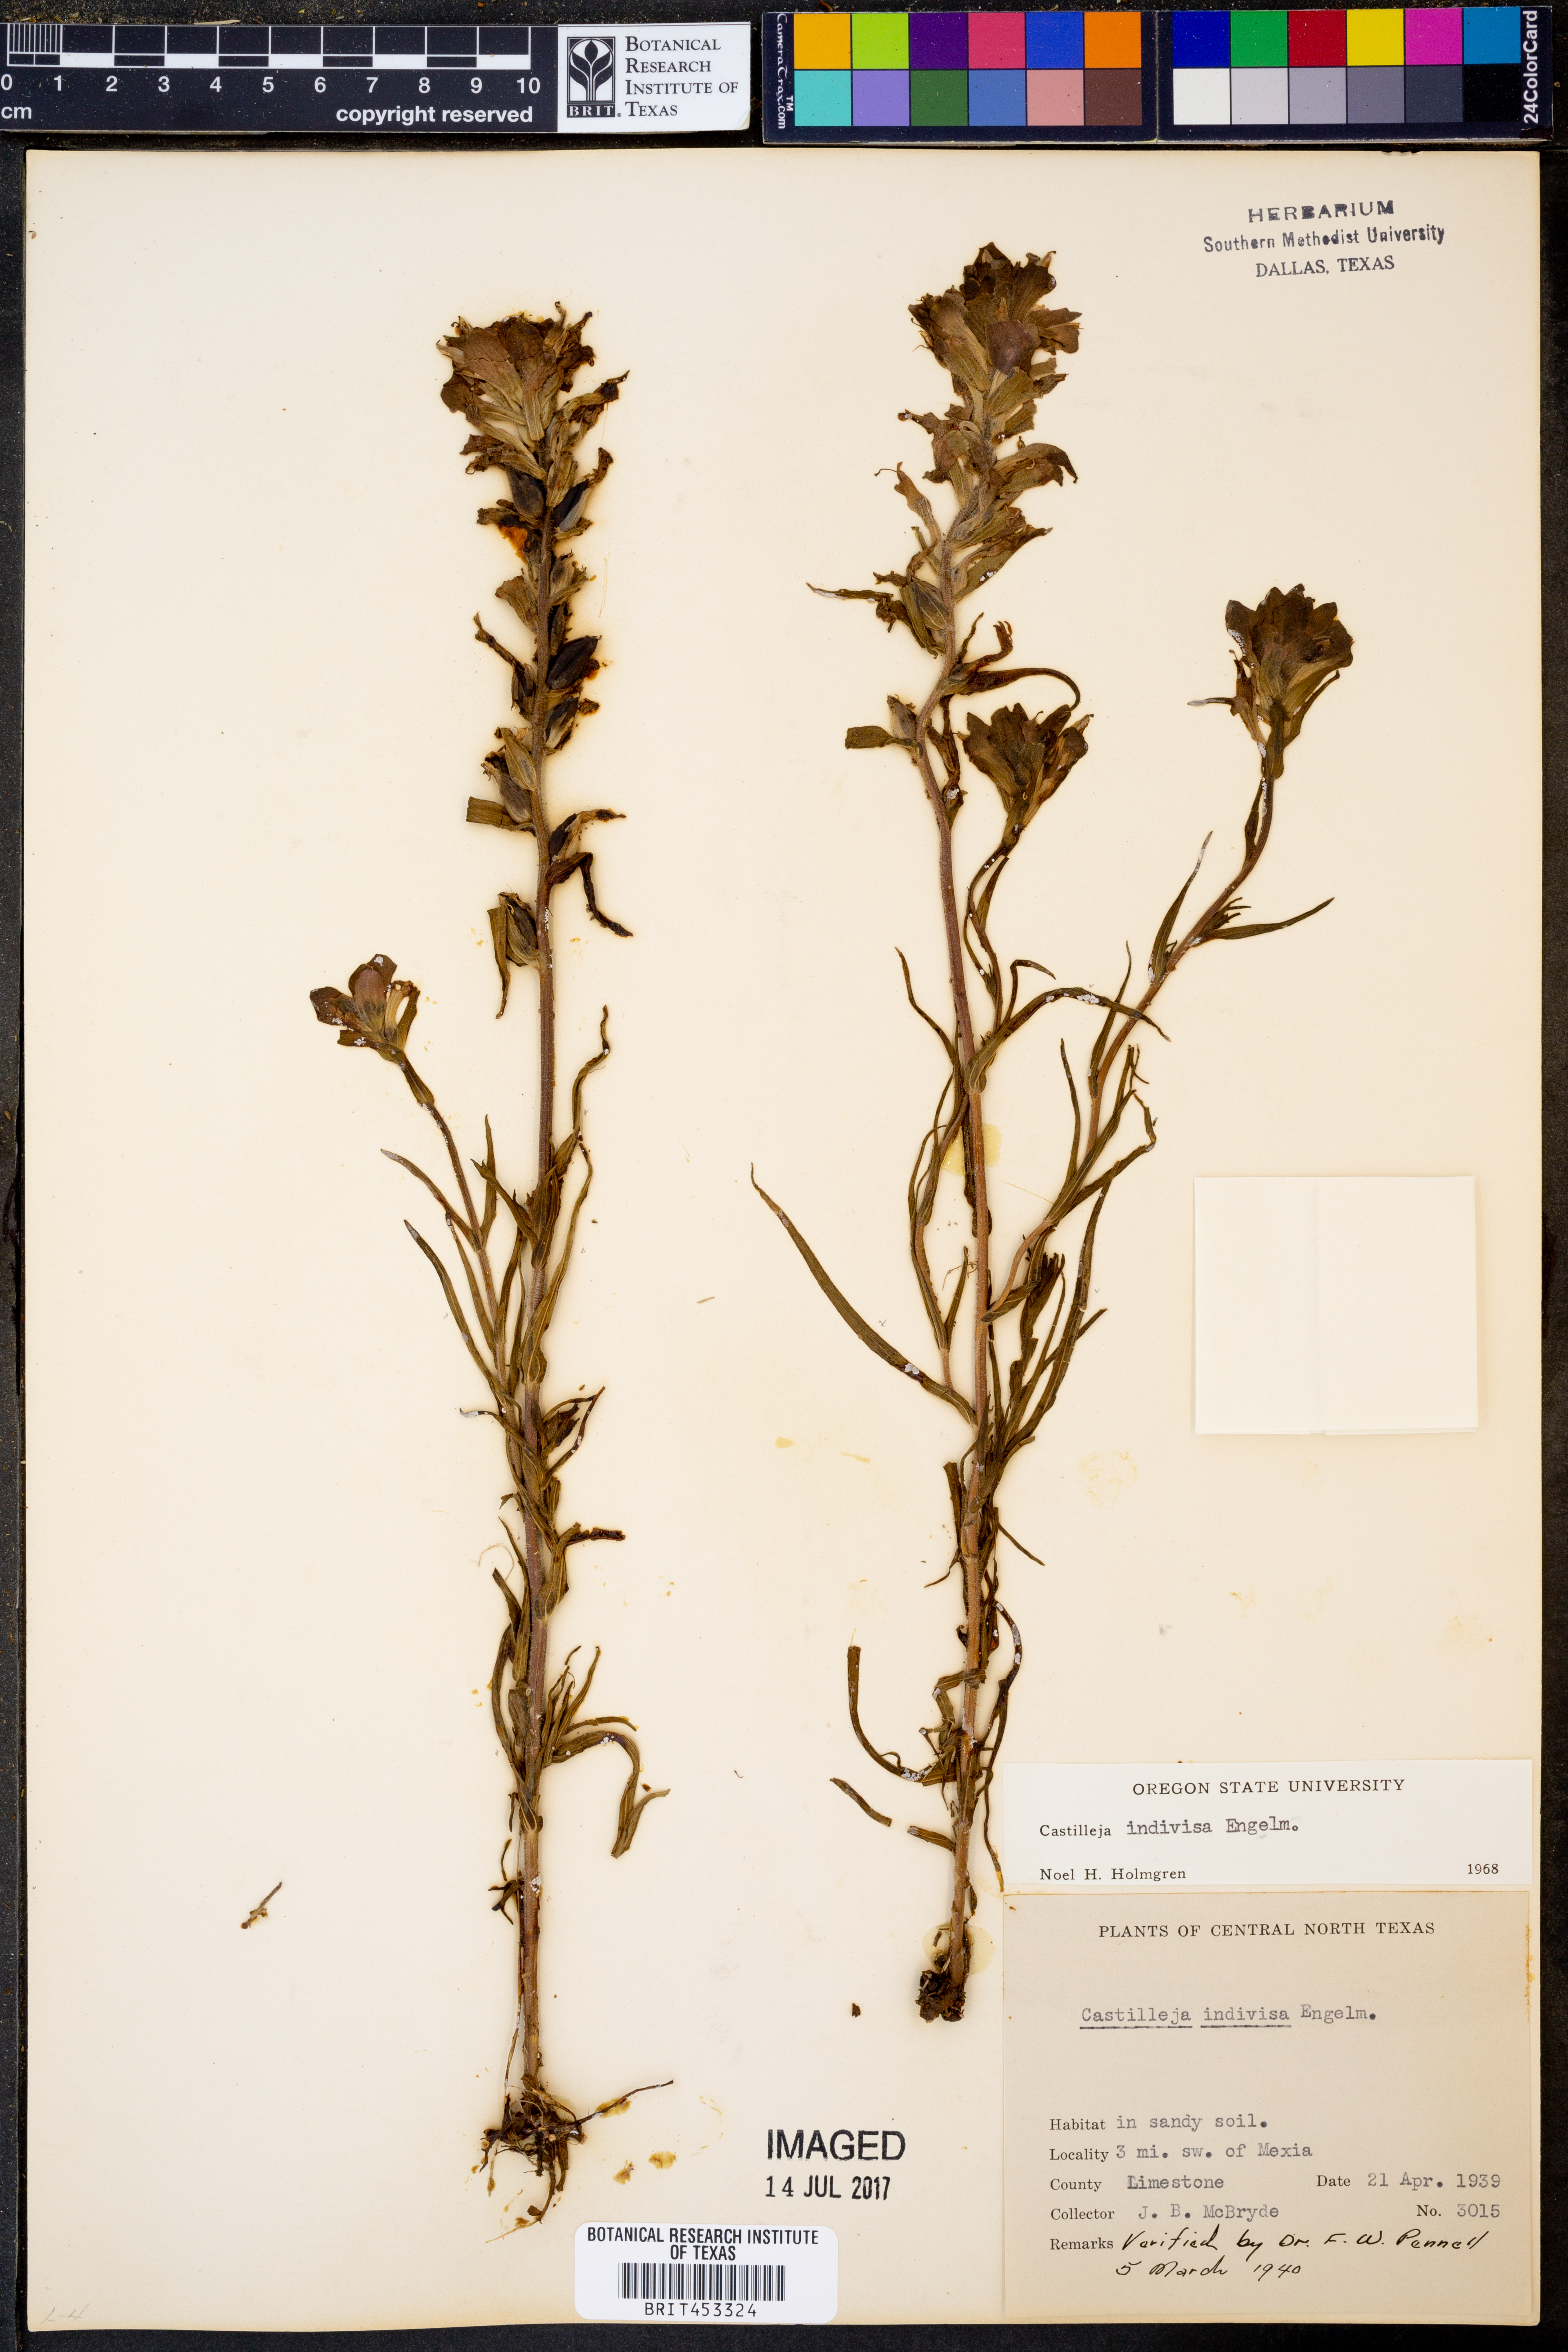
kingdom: Plantae
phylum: Tracheophyta
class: Magnoliopsida
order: Lamiales
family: Orobanchaceae
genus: Castilleja
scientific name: Castilleja indivisa
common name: Texas paintbrush
